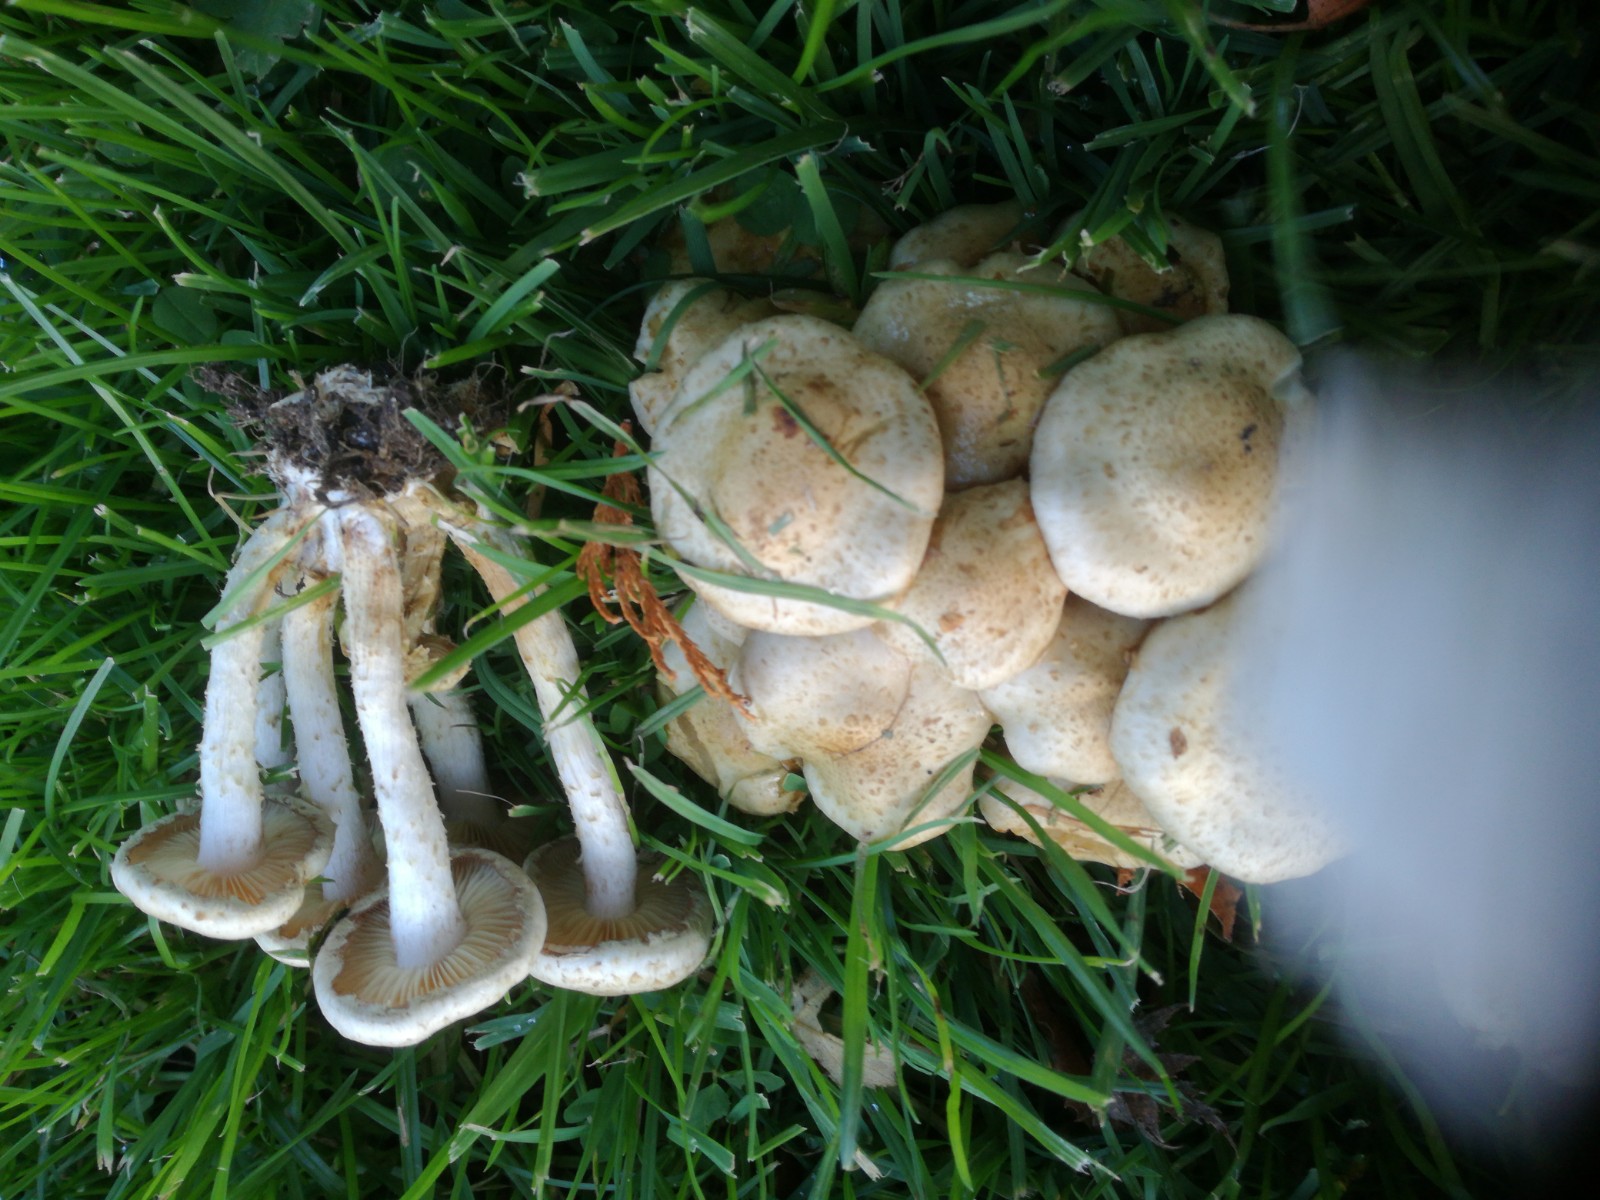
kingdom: Fungi
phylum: Basidiomycota
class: Agaricomycetes
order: Agaricales
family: Strophariaceae
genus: Pholiota
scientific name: Pholiota gummosa
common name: grøngul skælhat
